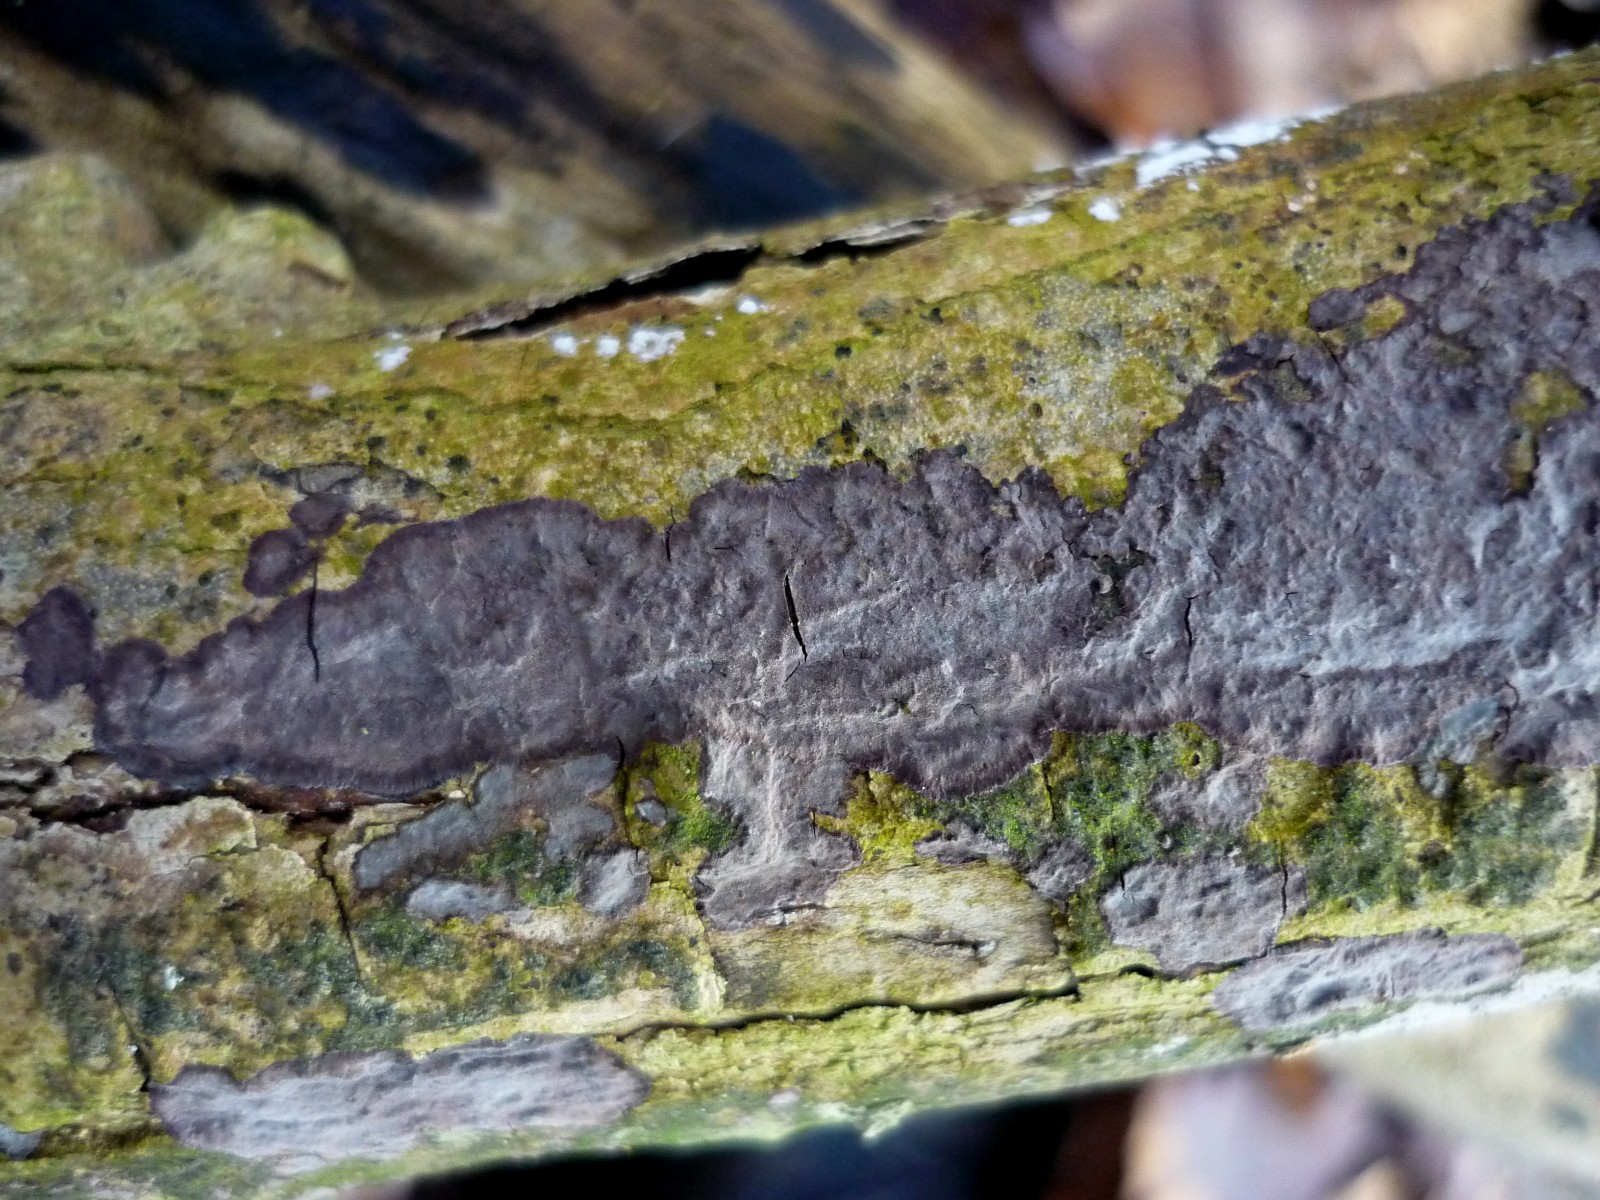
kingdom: Fungi
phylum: Basidiomycota
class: Agaricomycetes
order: Russulales
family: Peniophoraceae
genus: Peniophora
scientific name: Peniophora limitata
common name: mørkrandet voksskind
